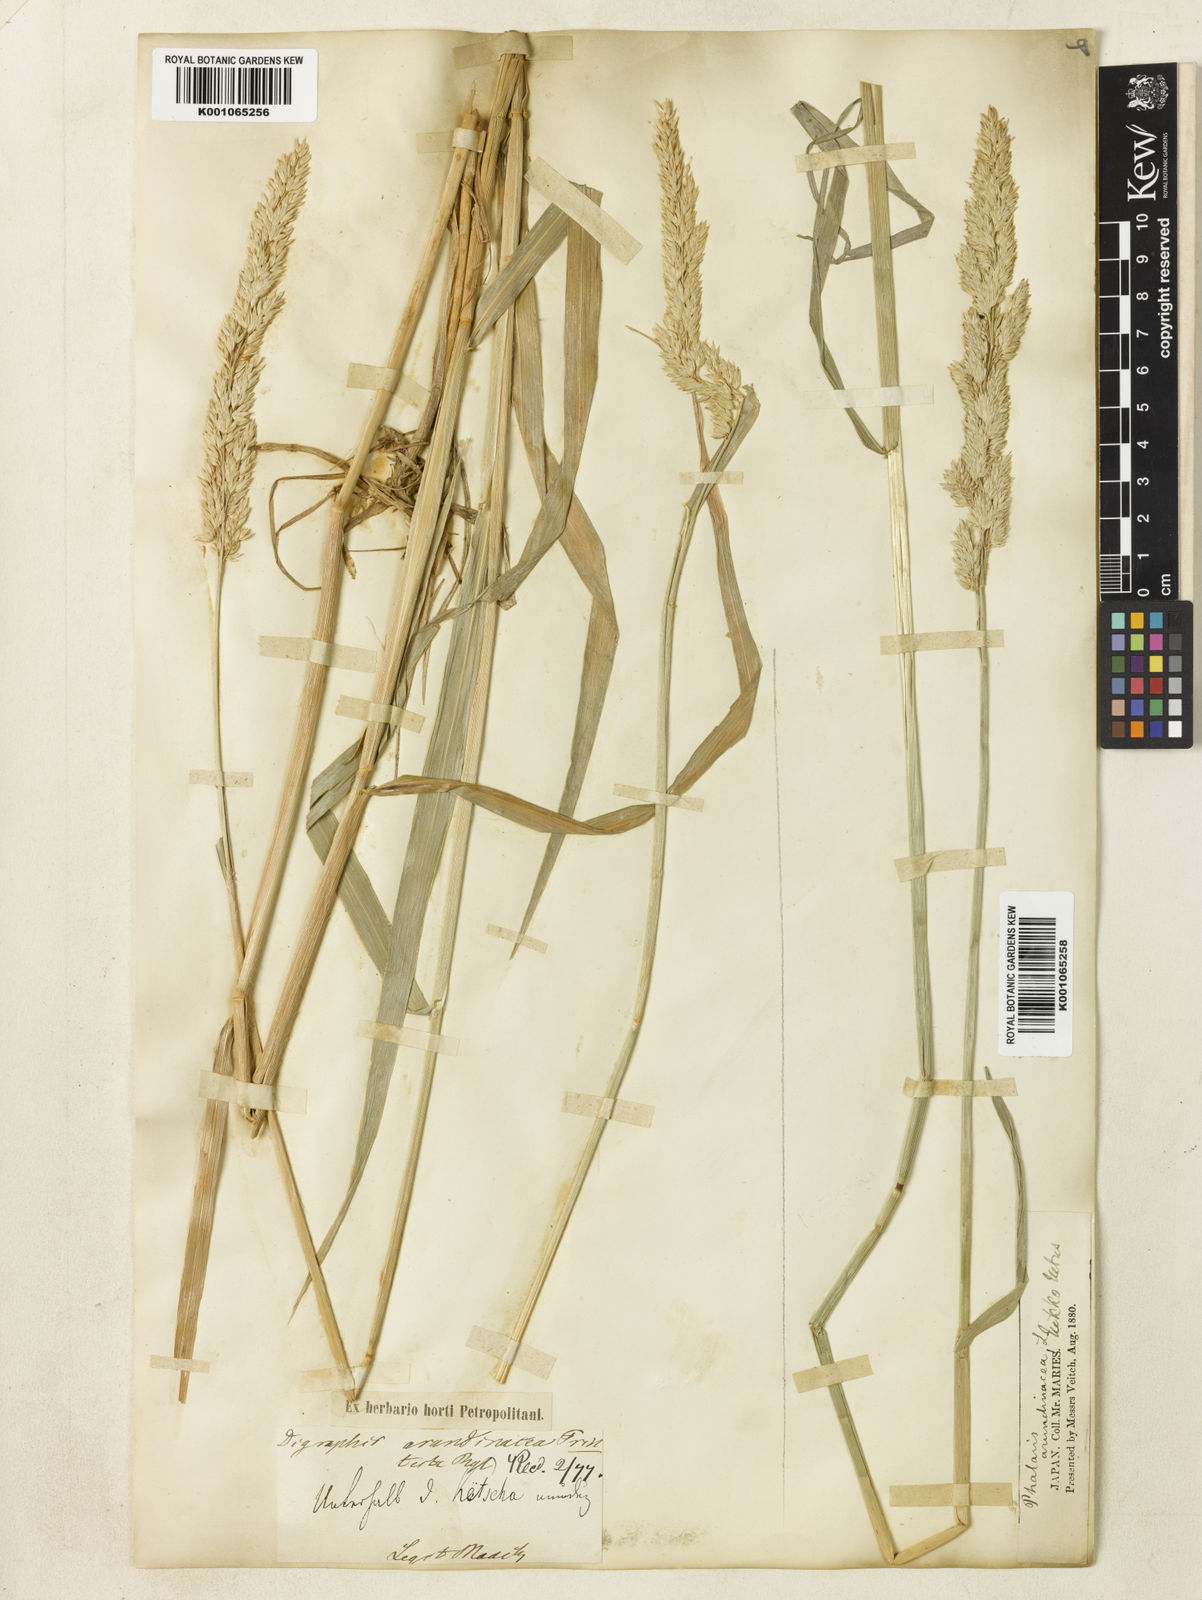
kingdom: Plantae
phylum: Tracheophyta
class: Liliopsida
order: Poales
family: Poaceae
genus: Phalaris
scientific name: Phalaris arundinacea
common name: Reed canary-grass
